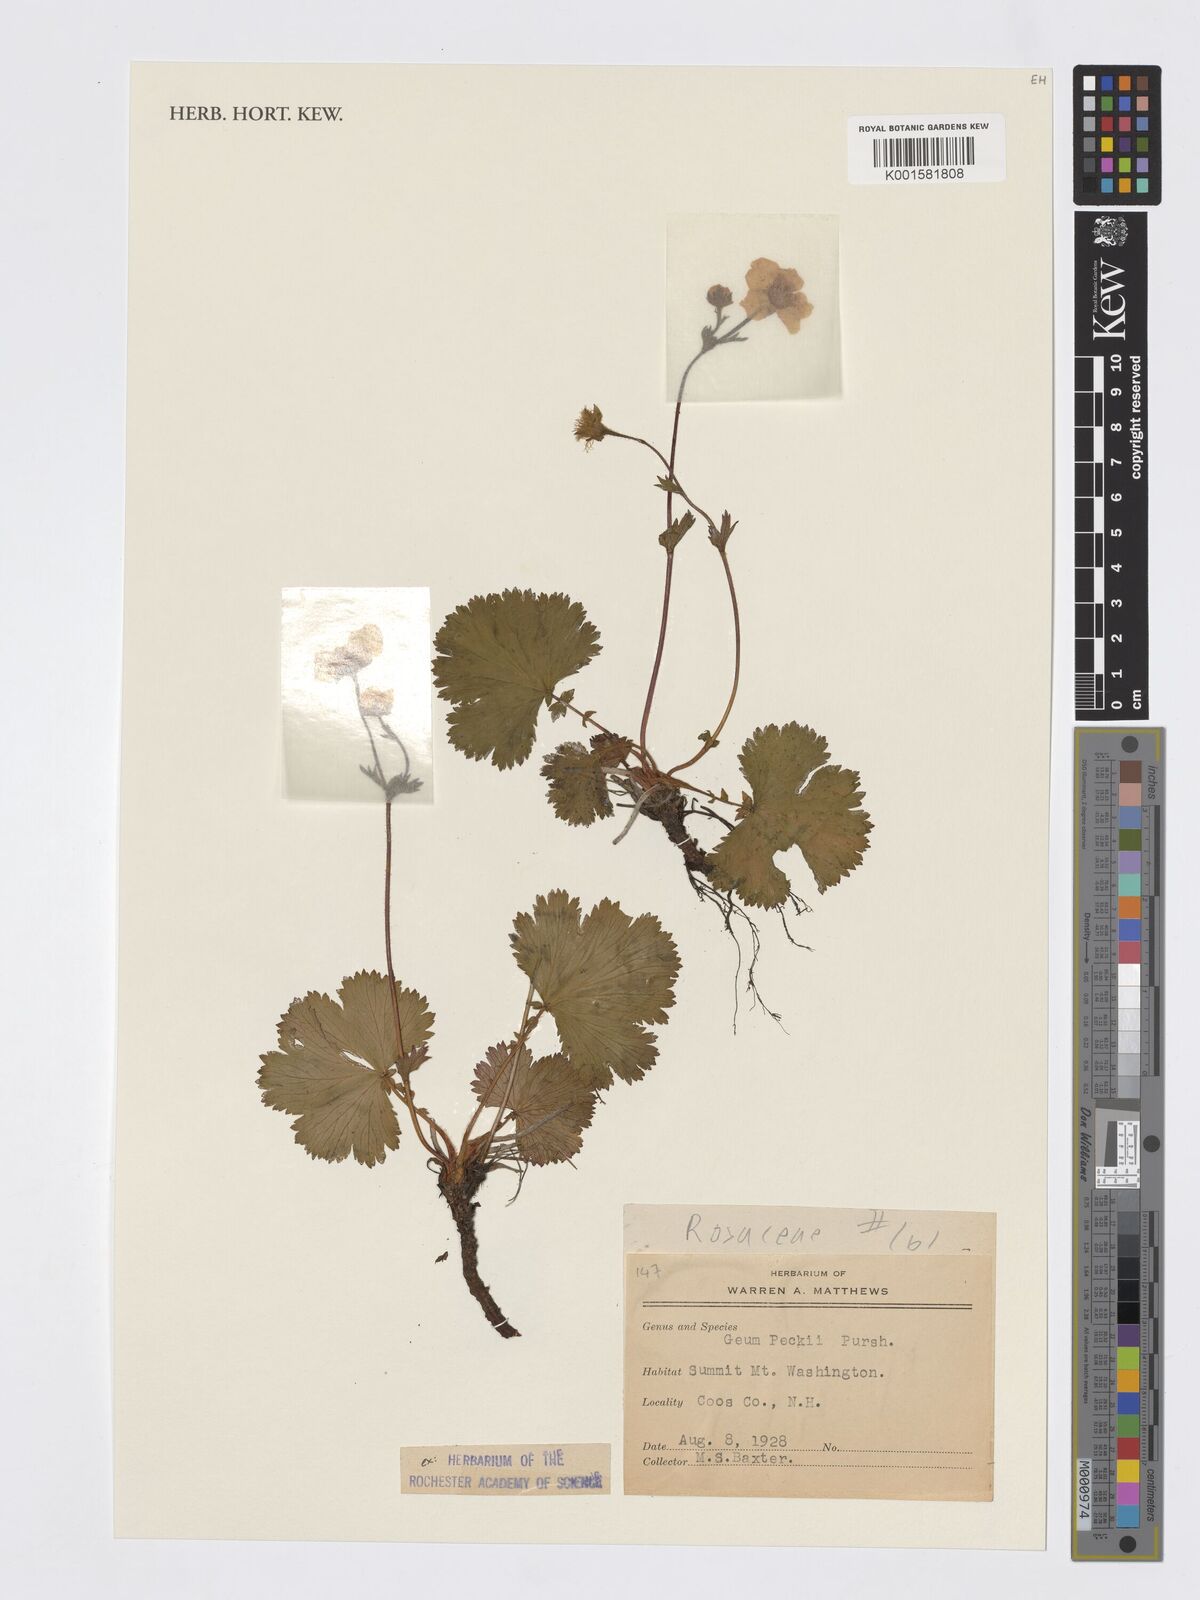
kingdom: Plantae
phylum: Tracheophyta
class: Magnoliopsida
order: Rosales
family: Rosaceae
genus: Geum
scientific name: Geum peckii
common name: Eastern mountain avens
